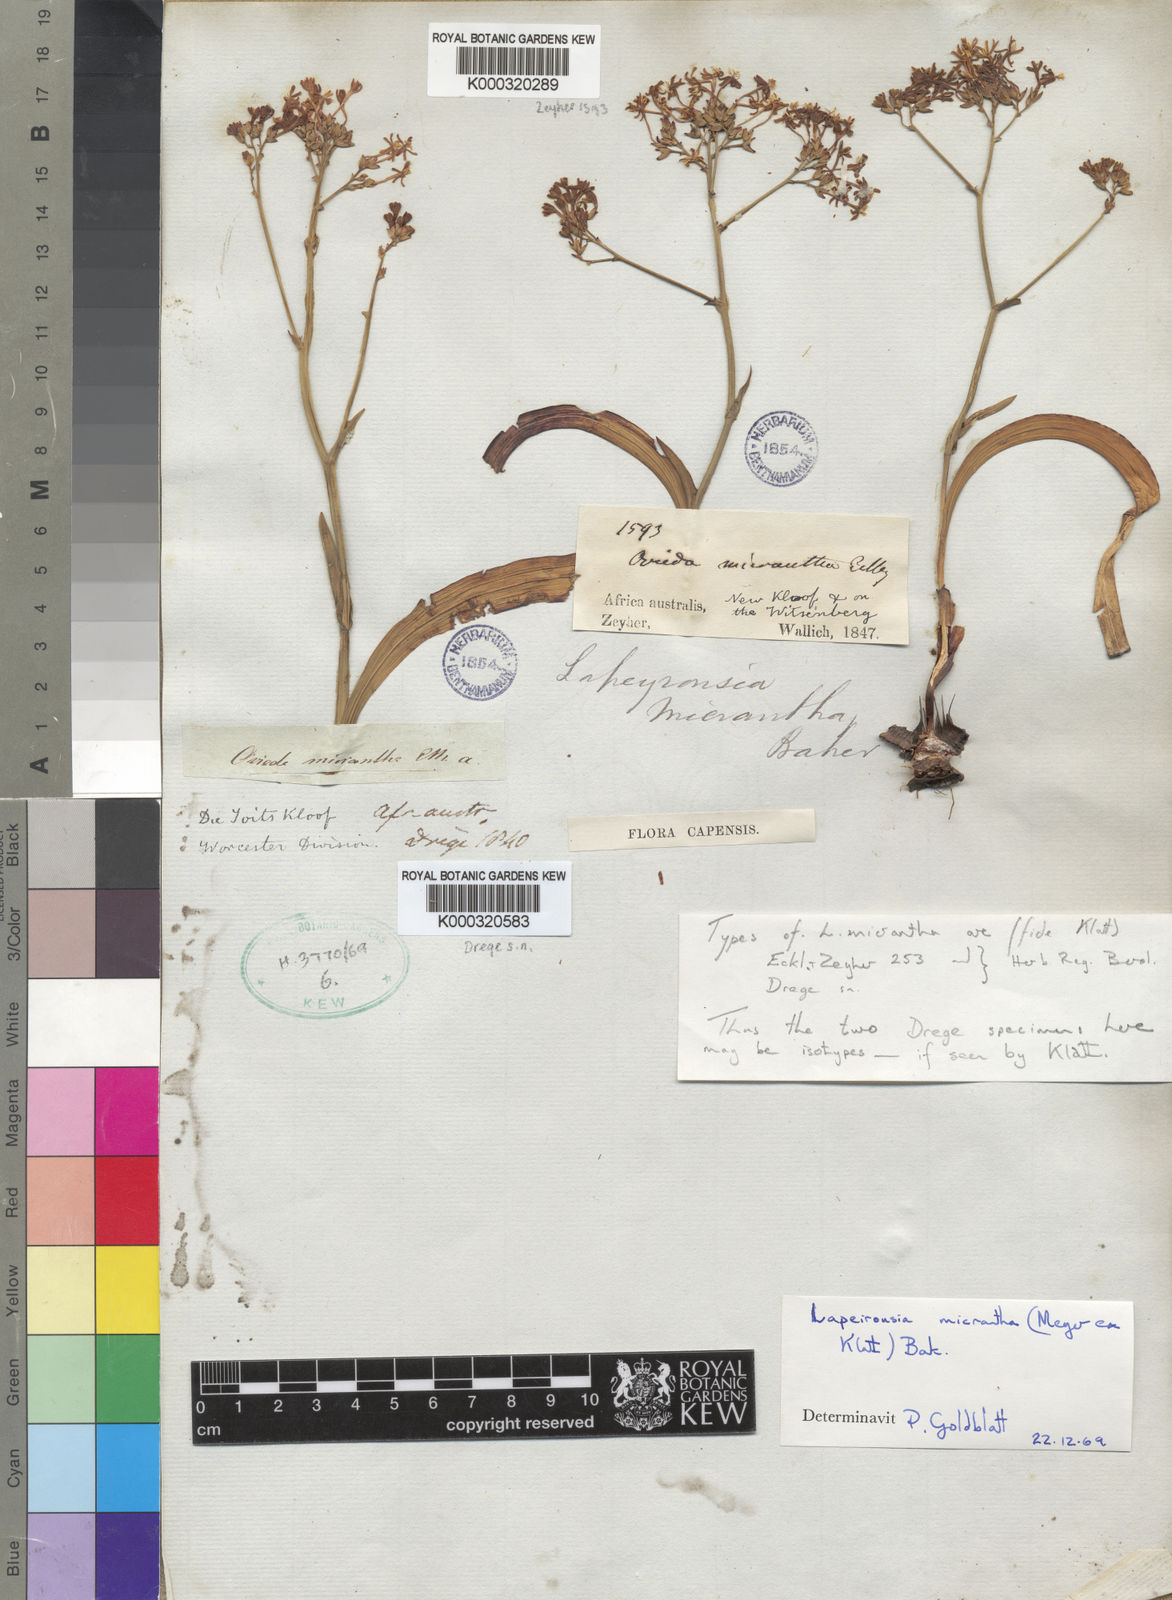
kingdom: Plantae
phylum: Tracheophyta
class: Liliopsida
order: Asparagales
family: Iridaceae
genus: Codonorhiza
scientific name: Codonorhiza micrantha
